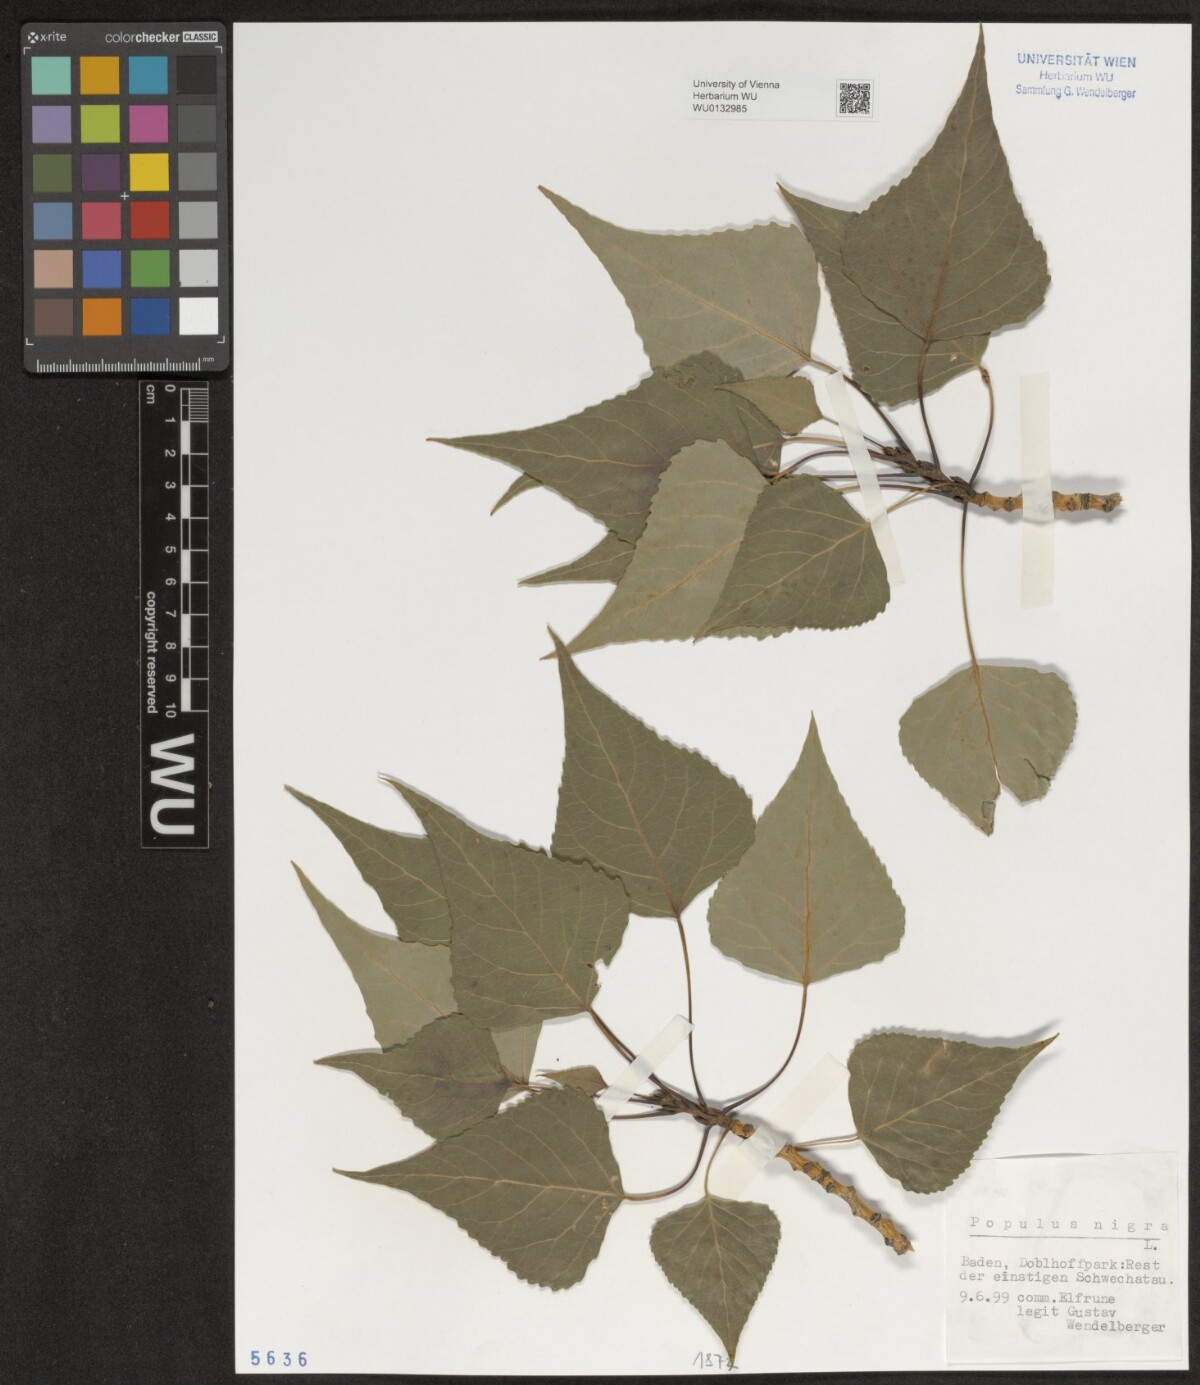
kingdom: Plantae
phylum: Tracheophyta
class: Magnoliopsida
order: Malpighiales
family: Salicaceae
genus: Populus
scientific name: Populus nigra
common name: Black poplar
